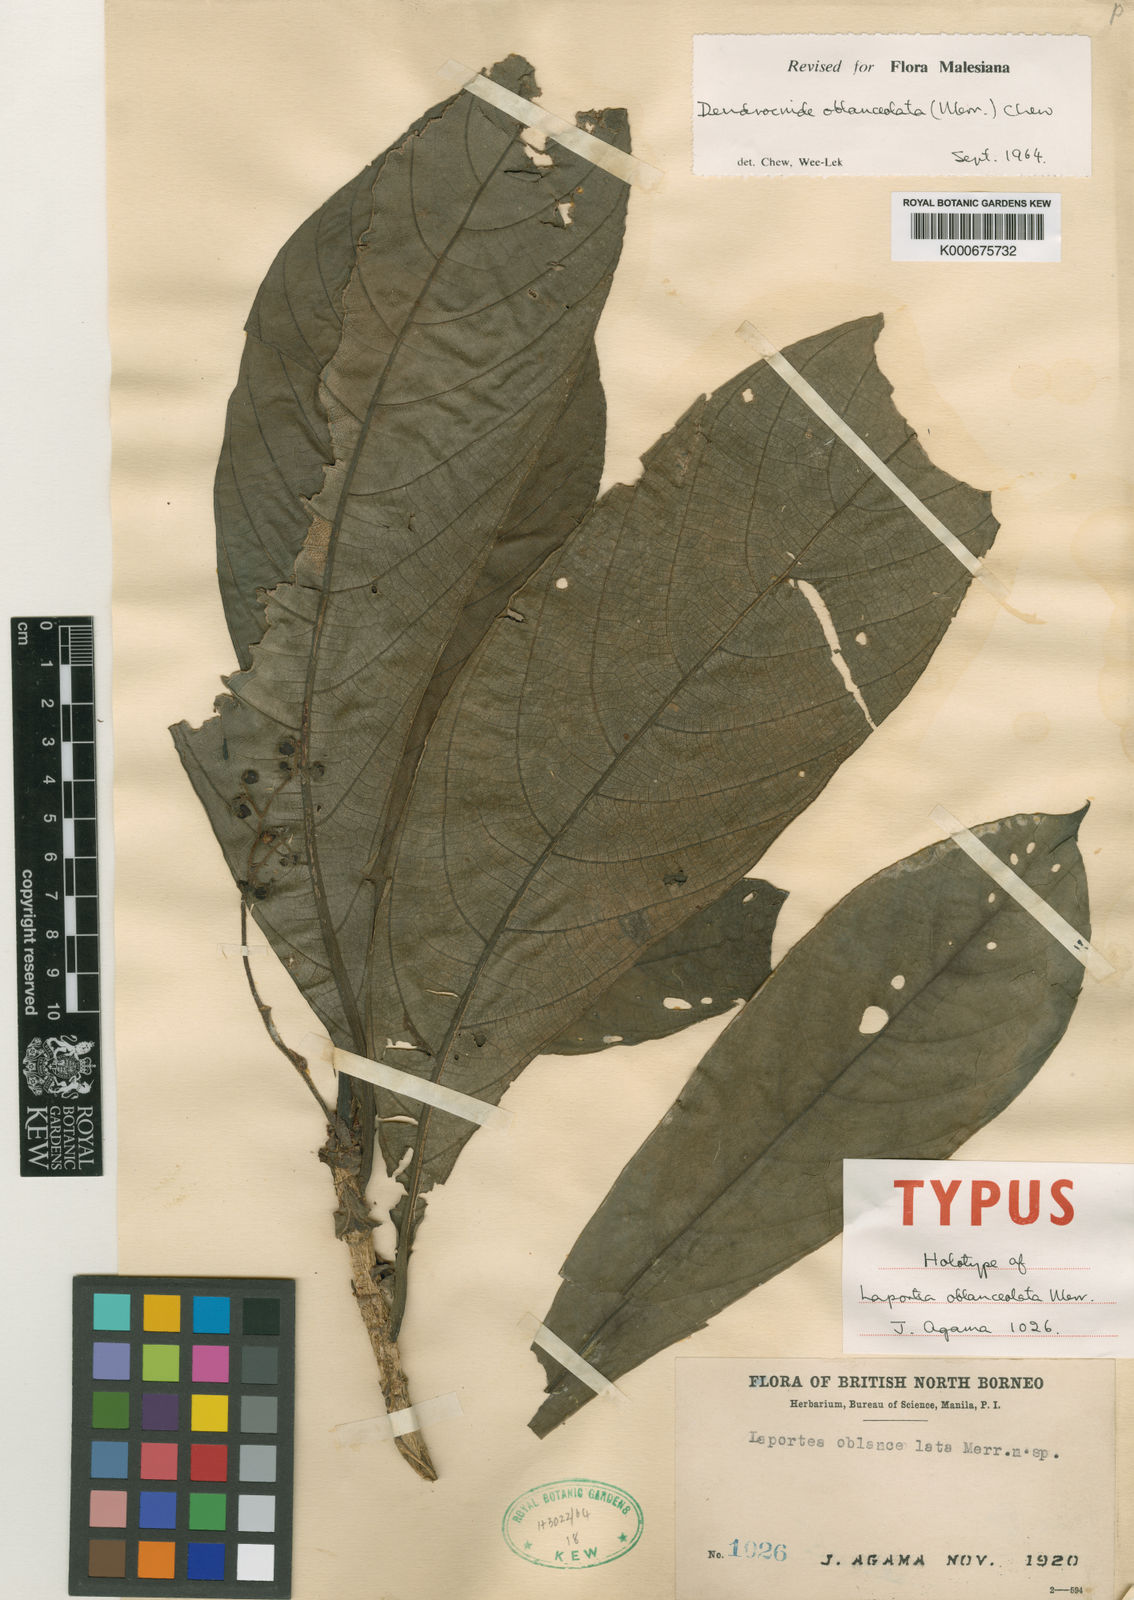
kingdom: Plantae
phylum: Tracheophyta
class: Magnoliopsida
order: Rosales
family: Urticaceae
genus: Dendrocnide
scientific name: Dendrocnide oblanceolata
